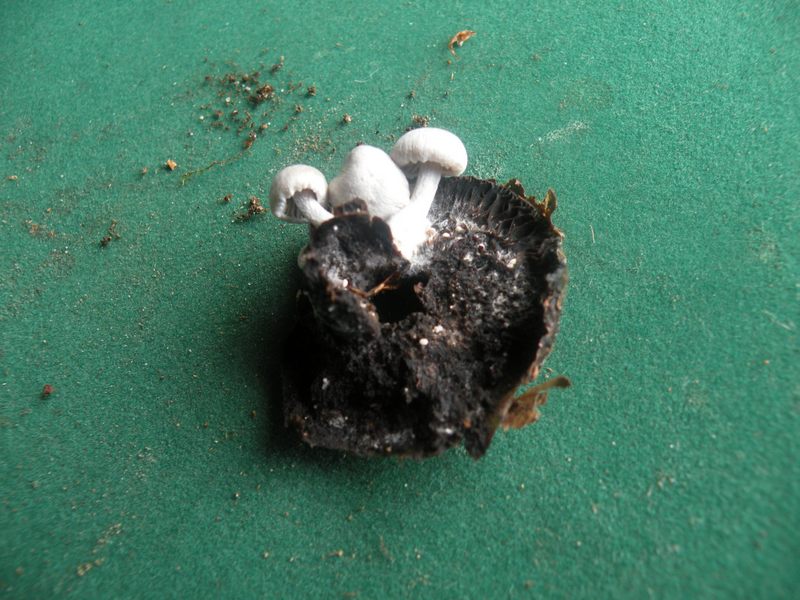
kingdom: Fungi
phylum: Basidiomycota
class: Agaricomycetes
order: Agaricales
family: Lyophyllaceae
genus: Asterophora
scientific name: Asterophora parasitica
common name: grå snyltehat
